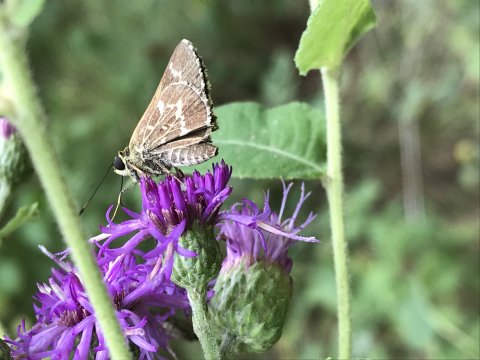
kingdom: Animalia
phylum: Arthropoda
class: Insecta
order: Lepidoptera
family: Hesperiidae
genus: Mastor
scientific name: Mastor aesculapius
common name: Lace-winged Roadside-Skipper
